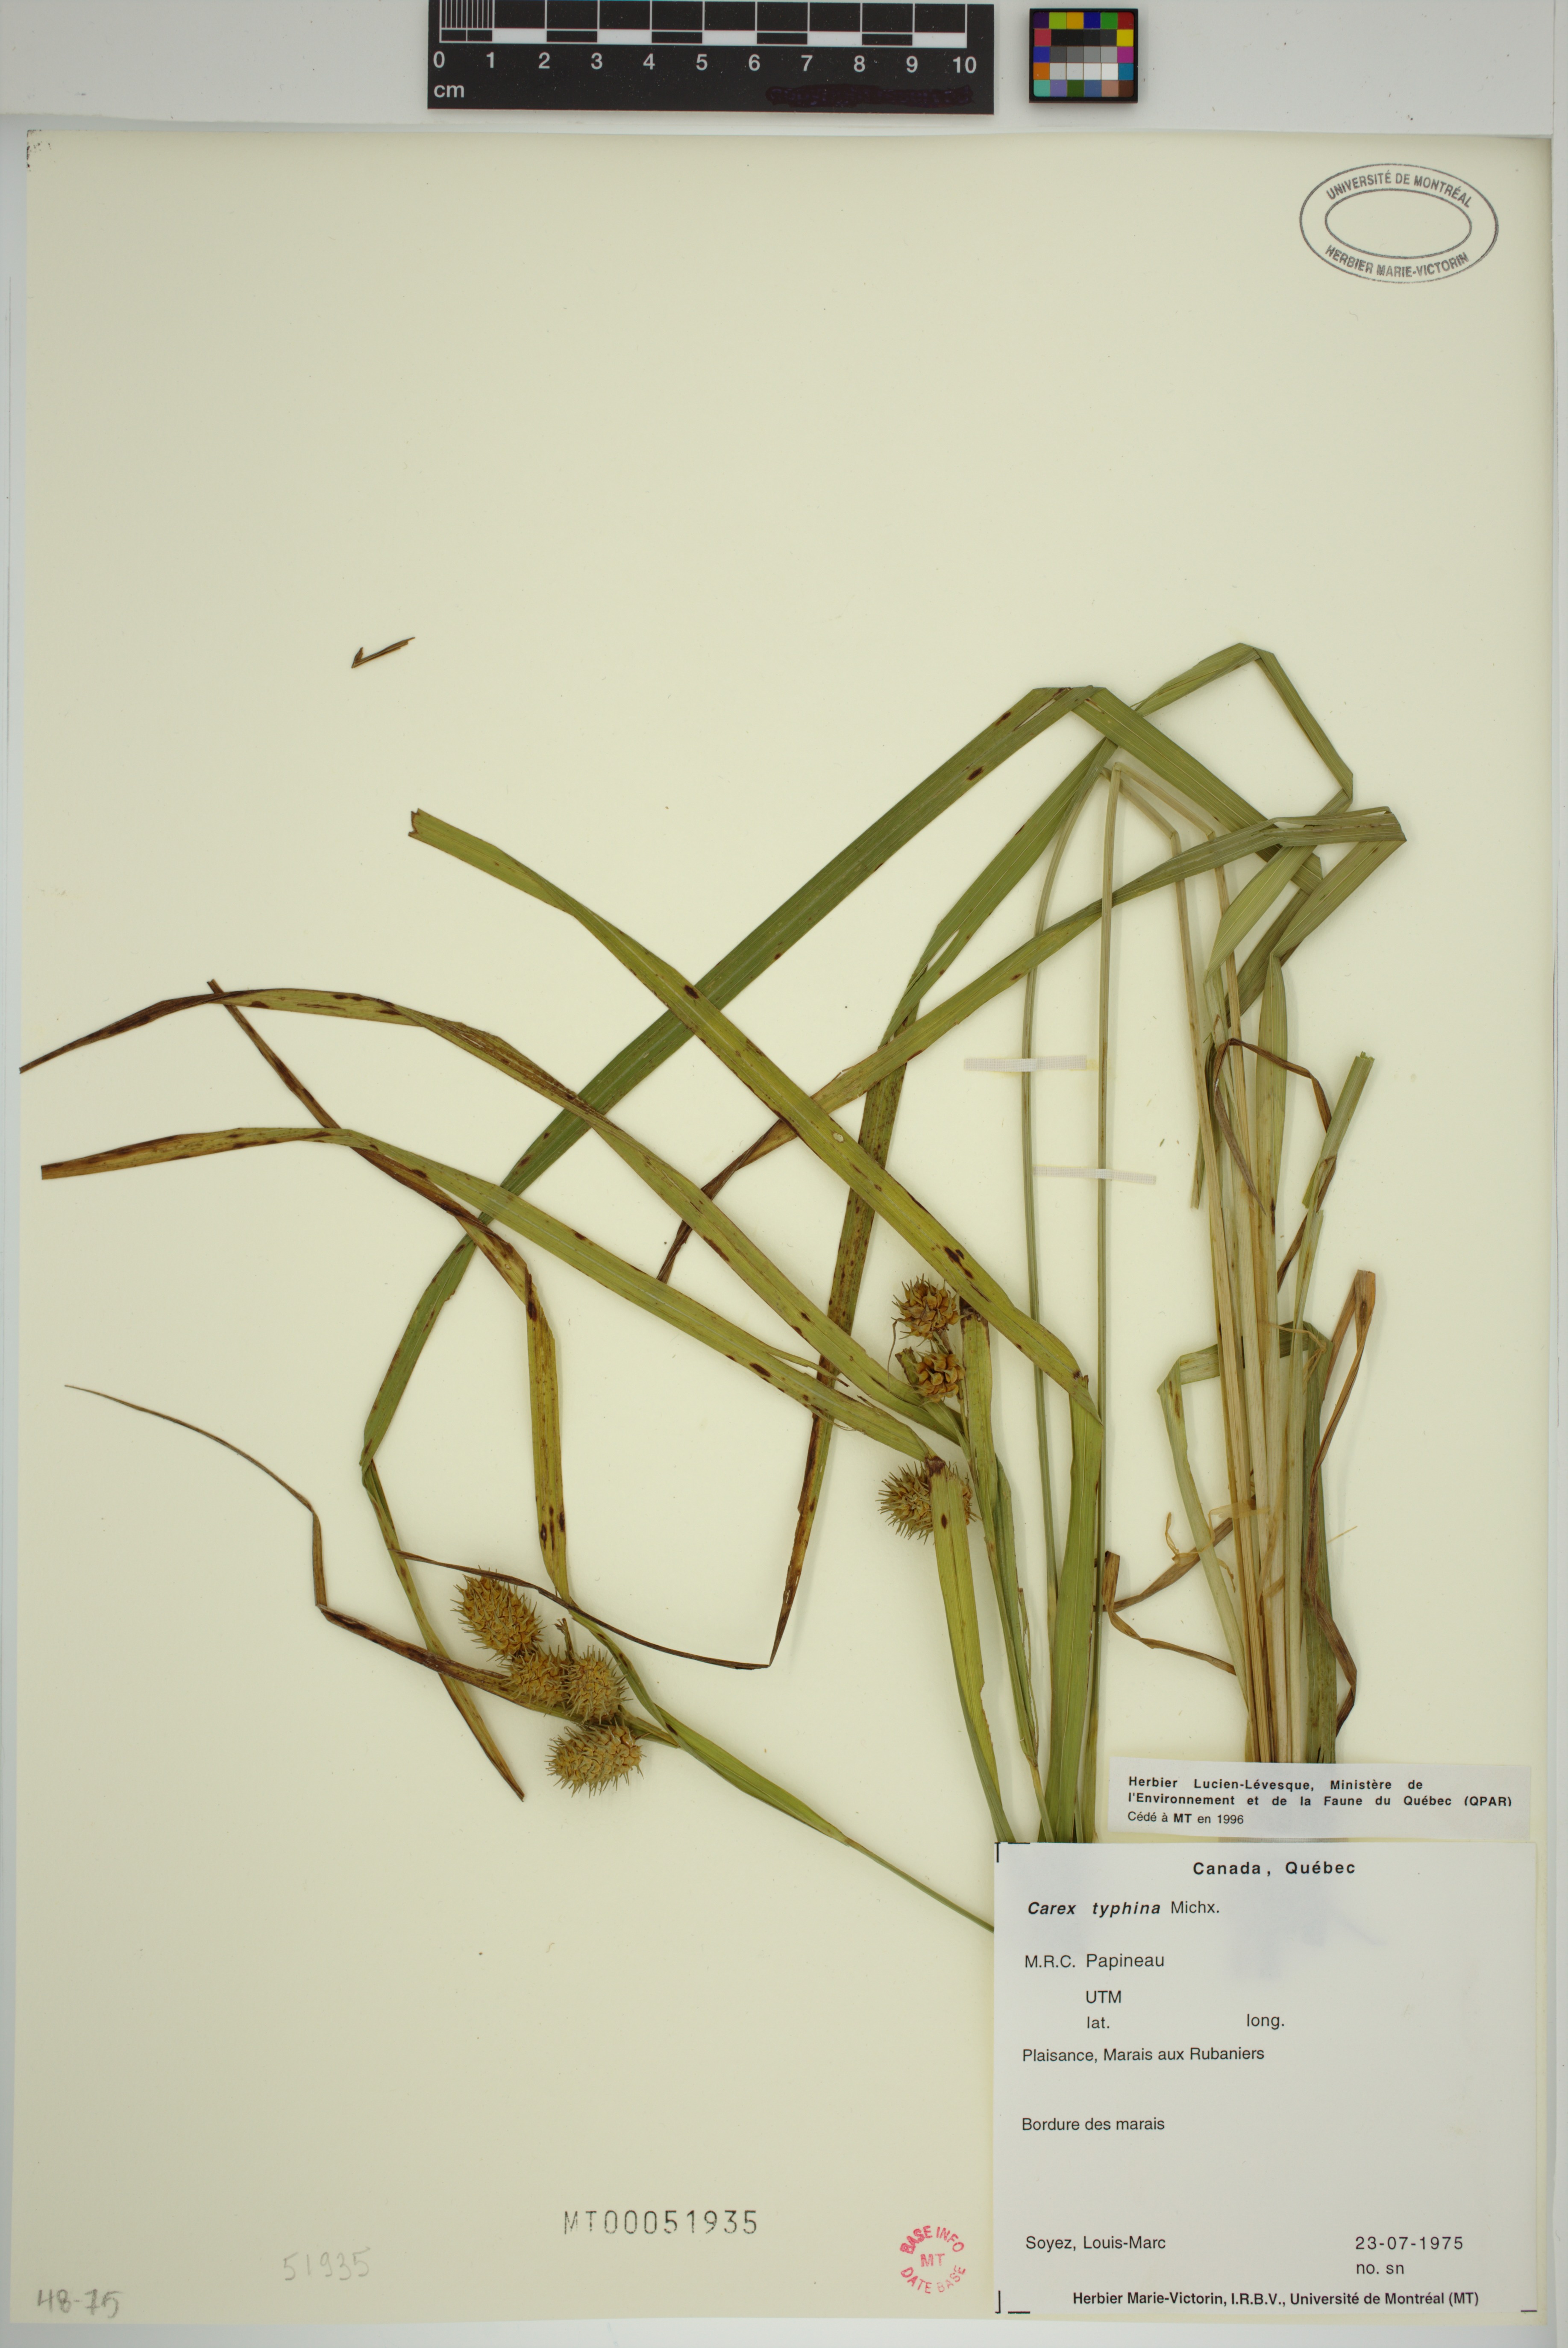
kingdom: Plantae
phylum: Tracheophyta
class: Liliopsida
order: Poales
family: Cyperaceae
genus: Carex
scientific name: Carex typhina
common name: Cattail sedge
